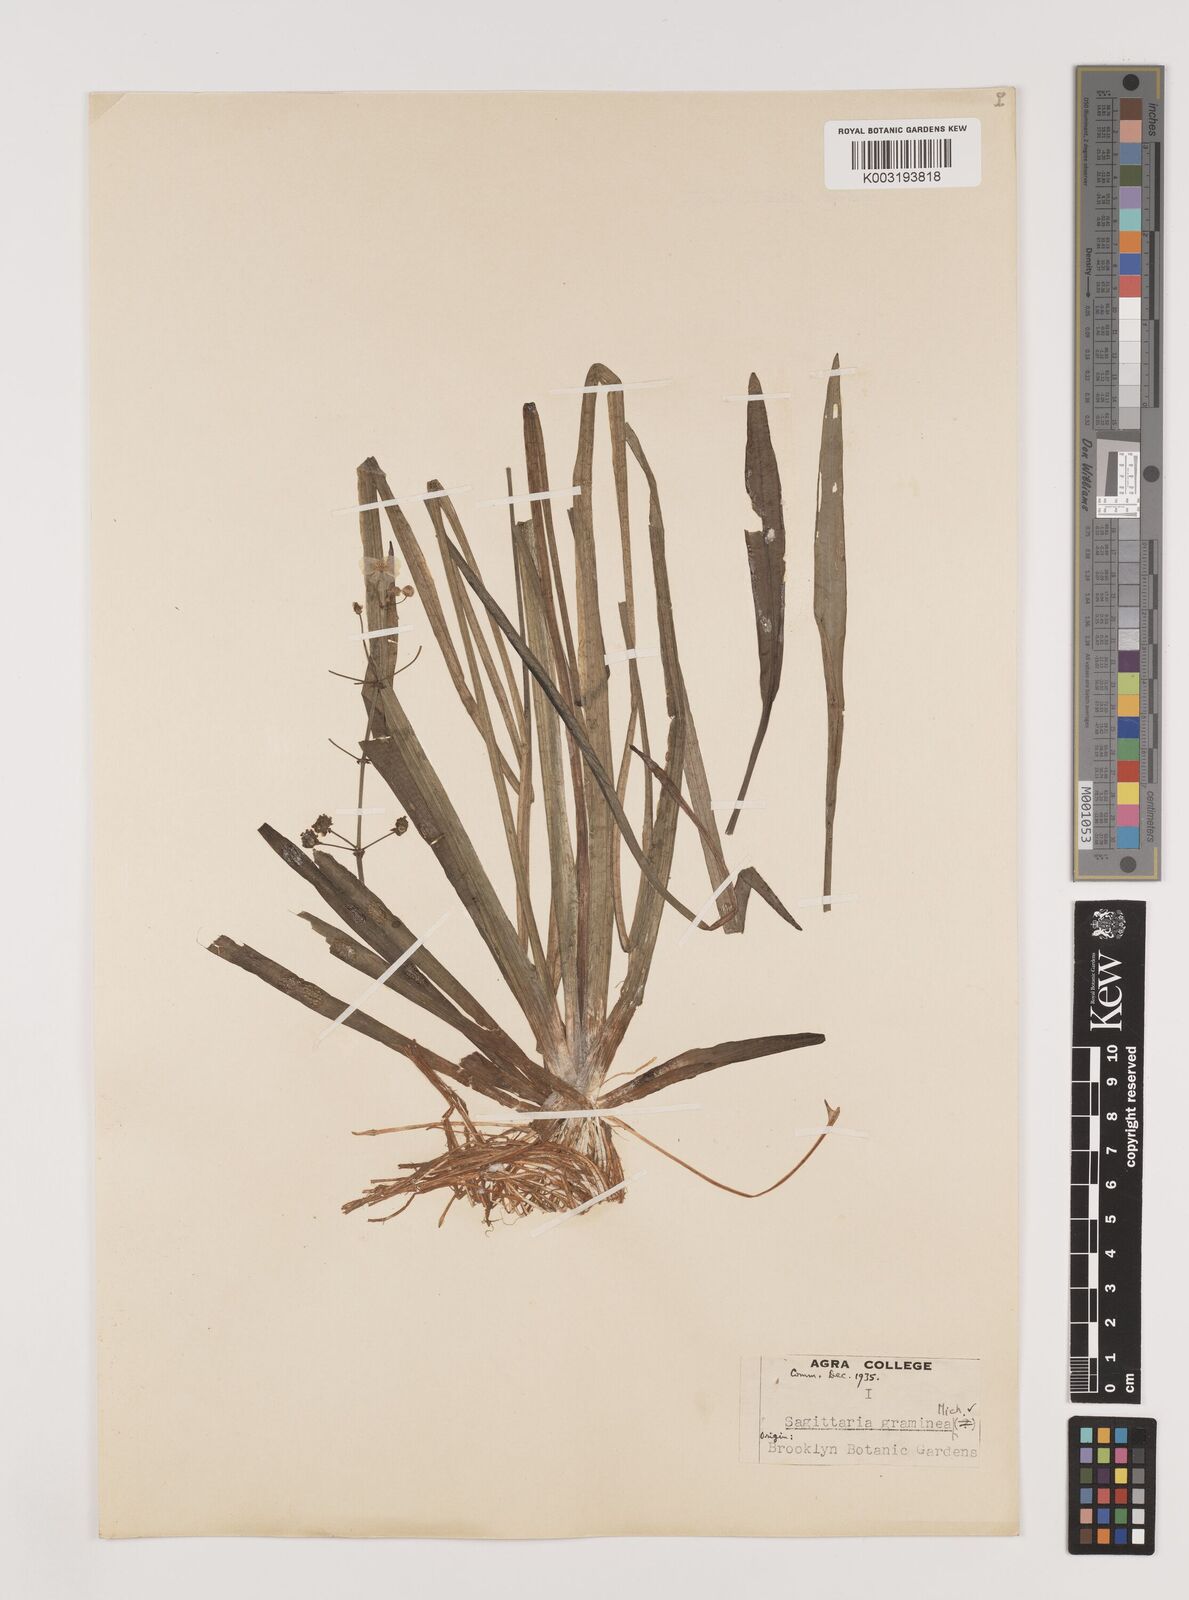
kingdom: Plantae
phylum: Tracheophyta
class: Liliopsida
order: Alismatales
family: Alismataceae
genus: Sagittaria
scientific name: Sagittaria graminea
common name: Grass-leaved arrowhead
